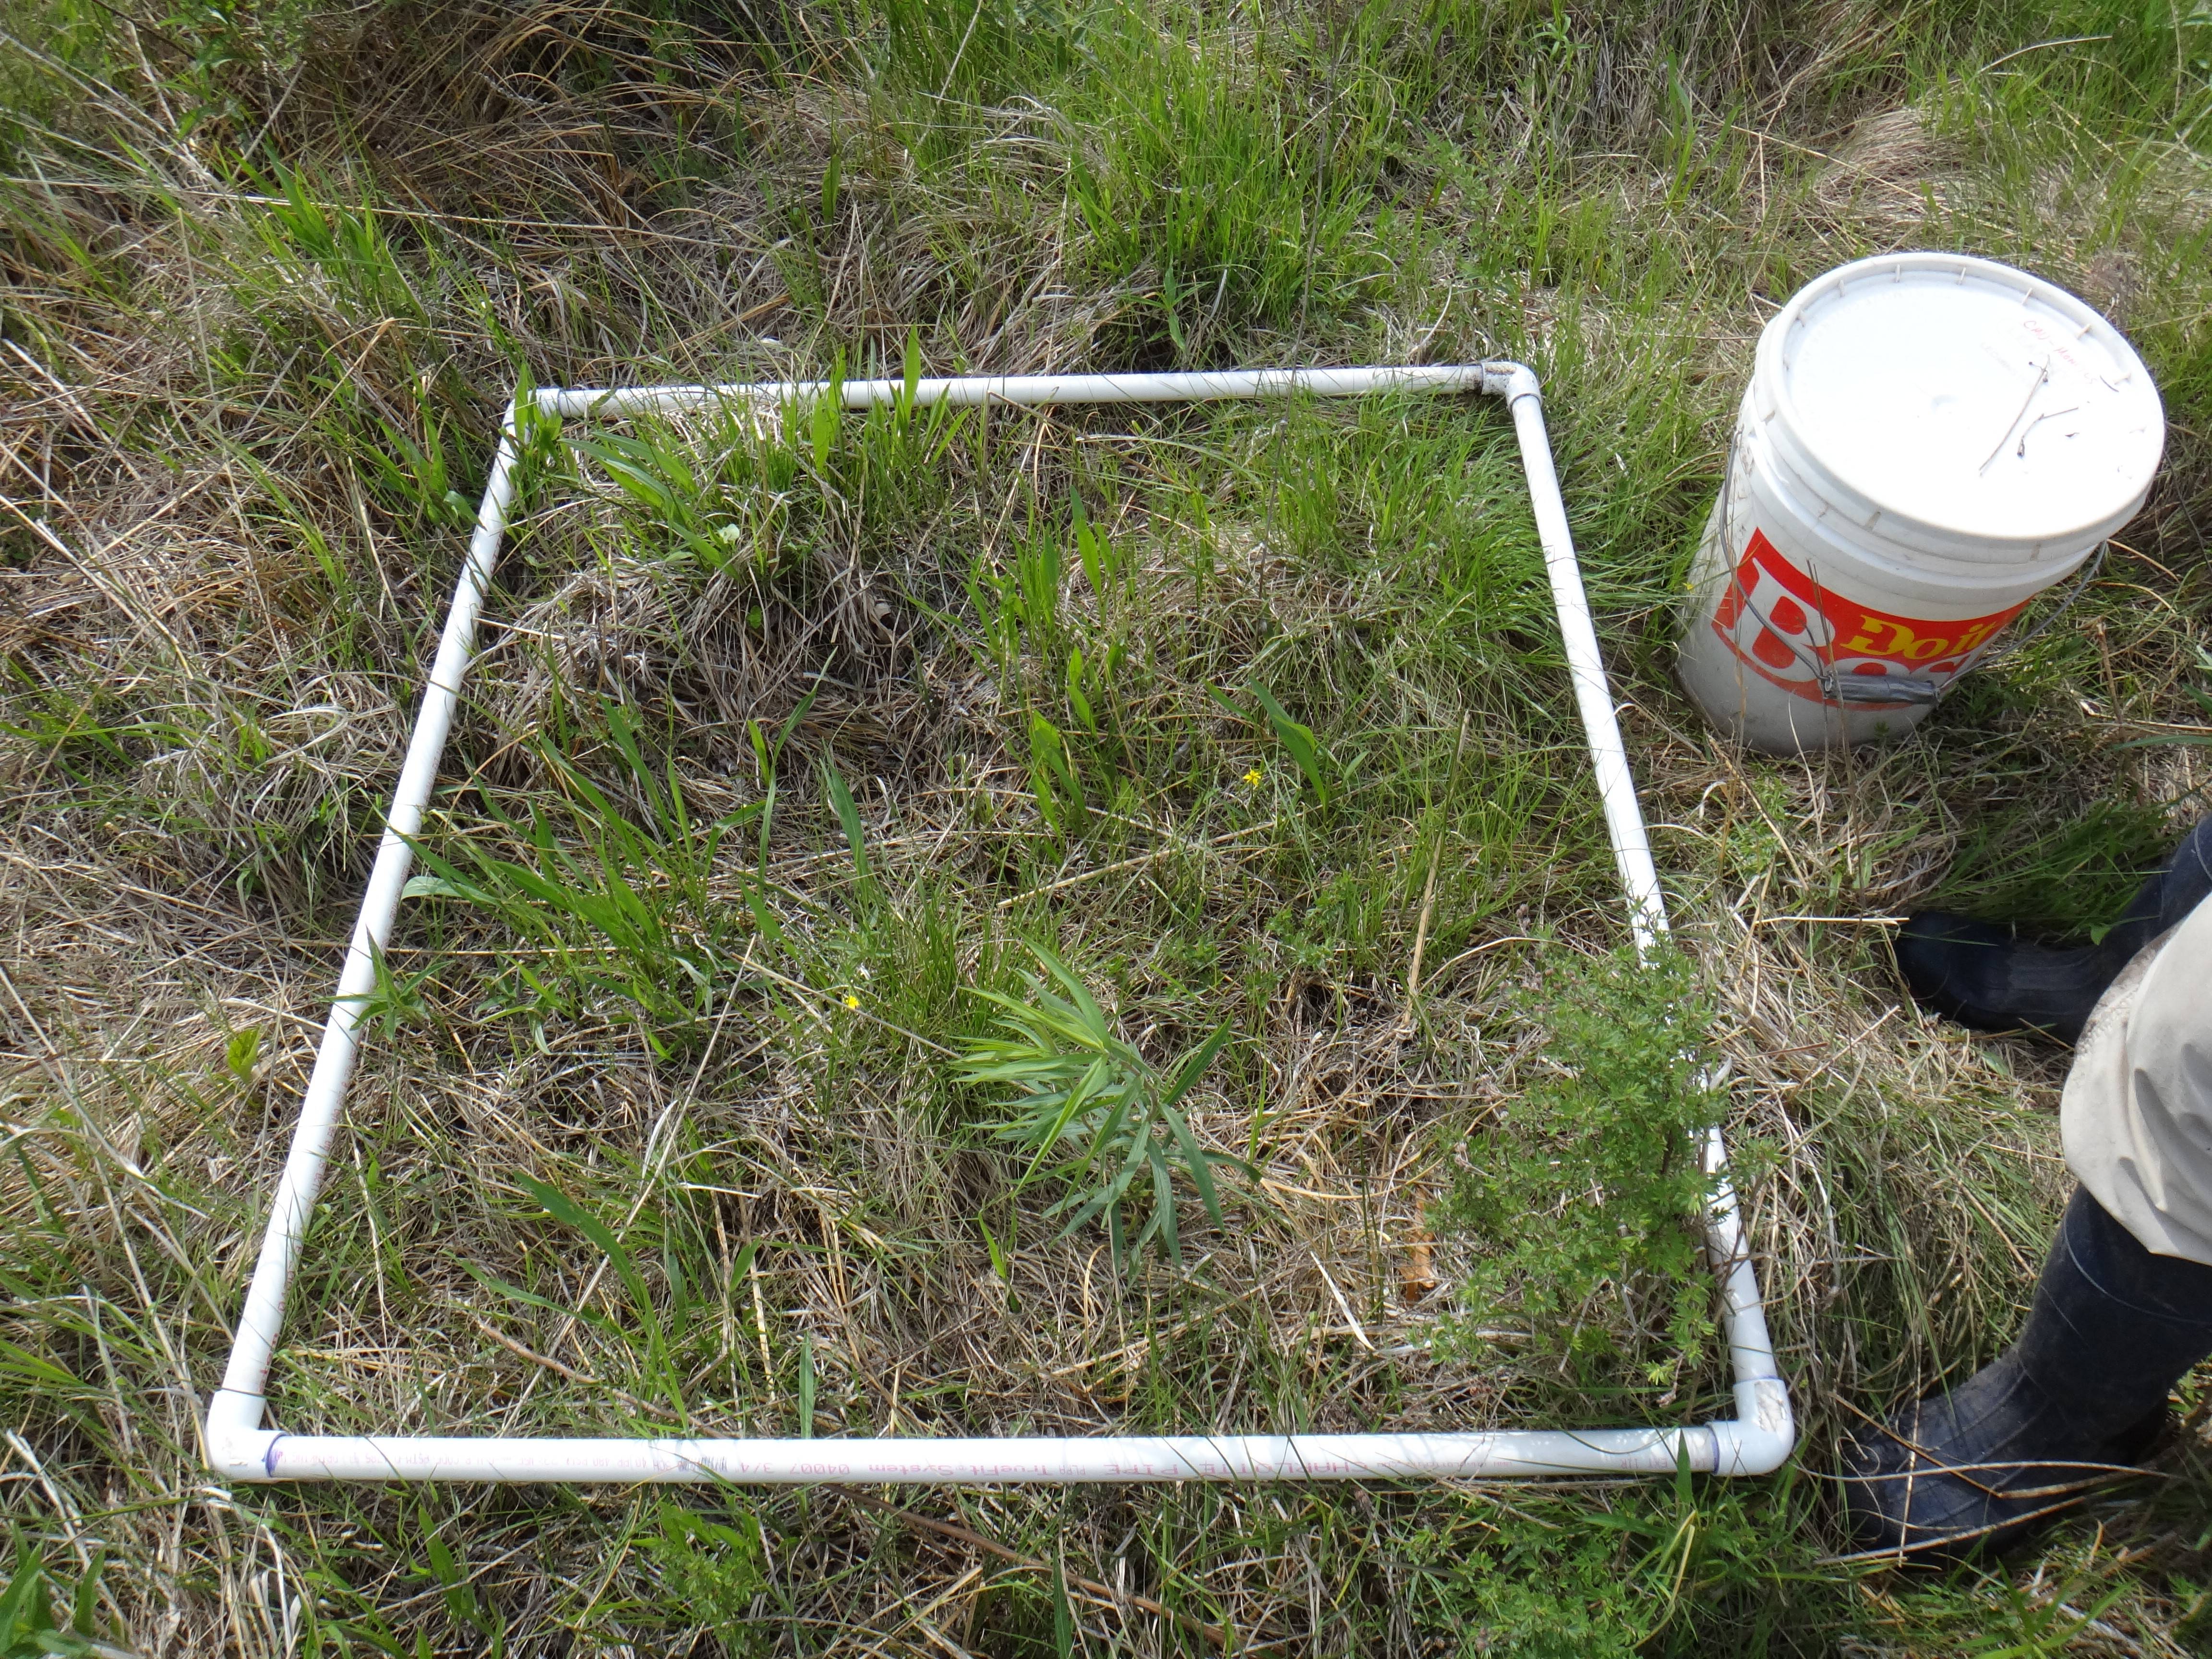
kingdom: Plantae
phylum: Tracheophyta
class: Liliopsida
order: Poales
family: Poaceae
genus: Andropogon
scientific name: Andropogon gerardi
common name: Big bluestem
